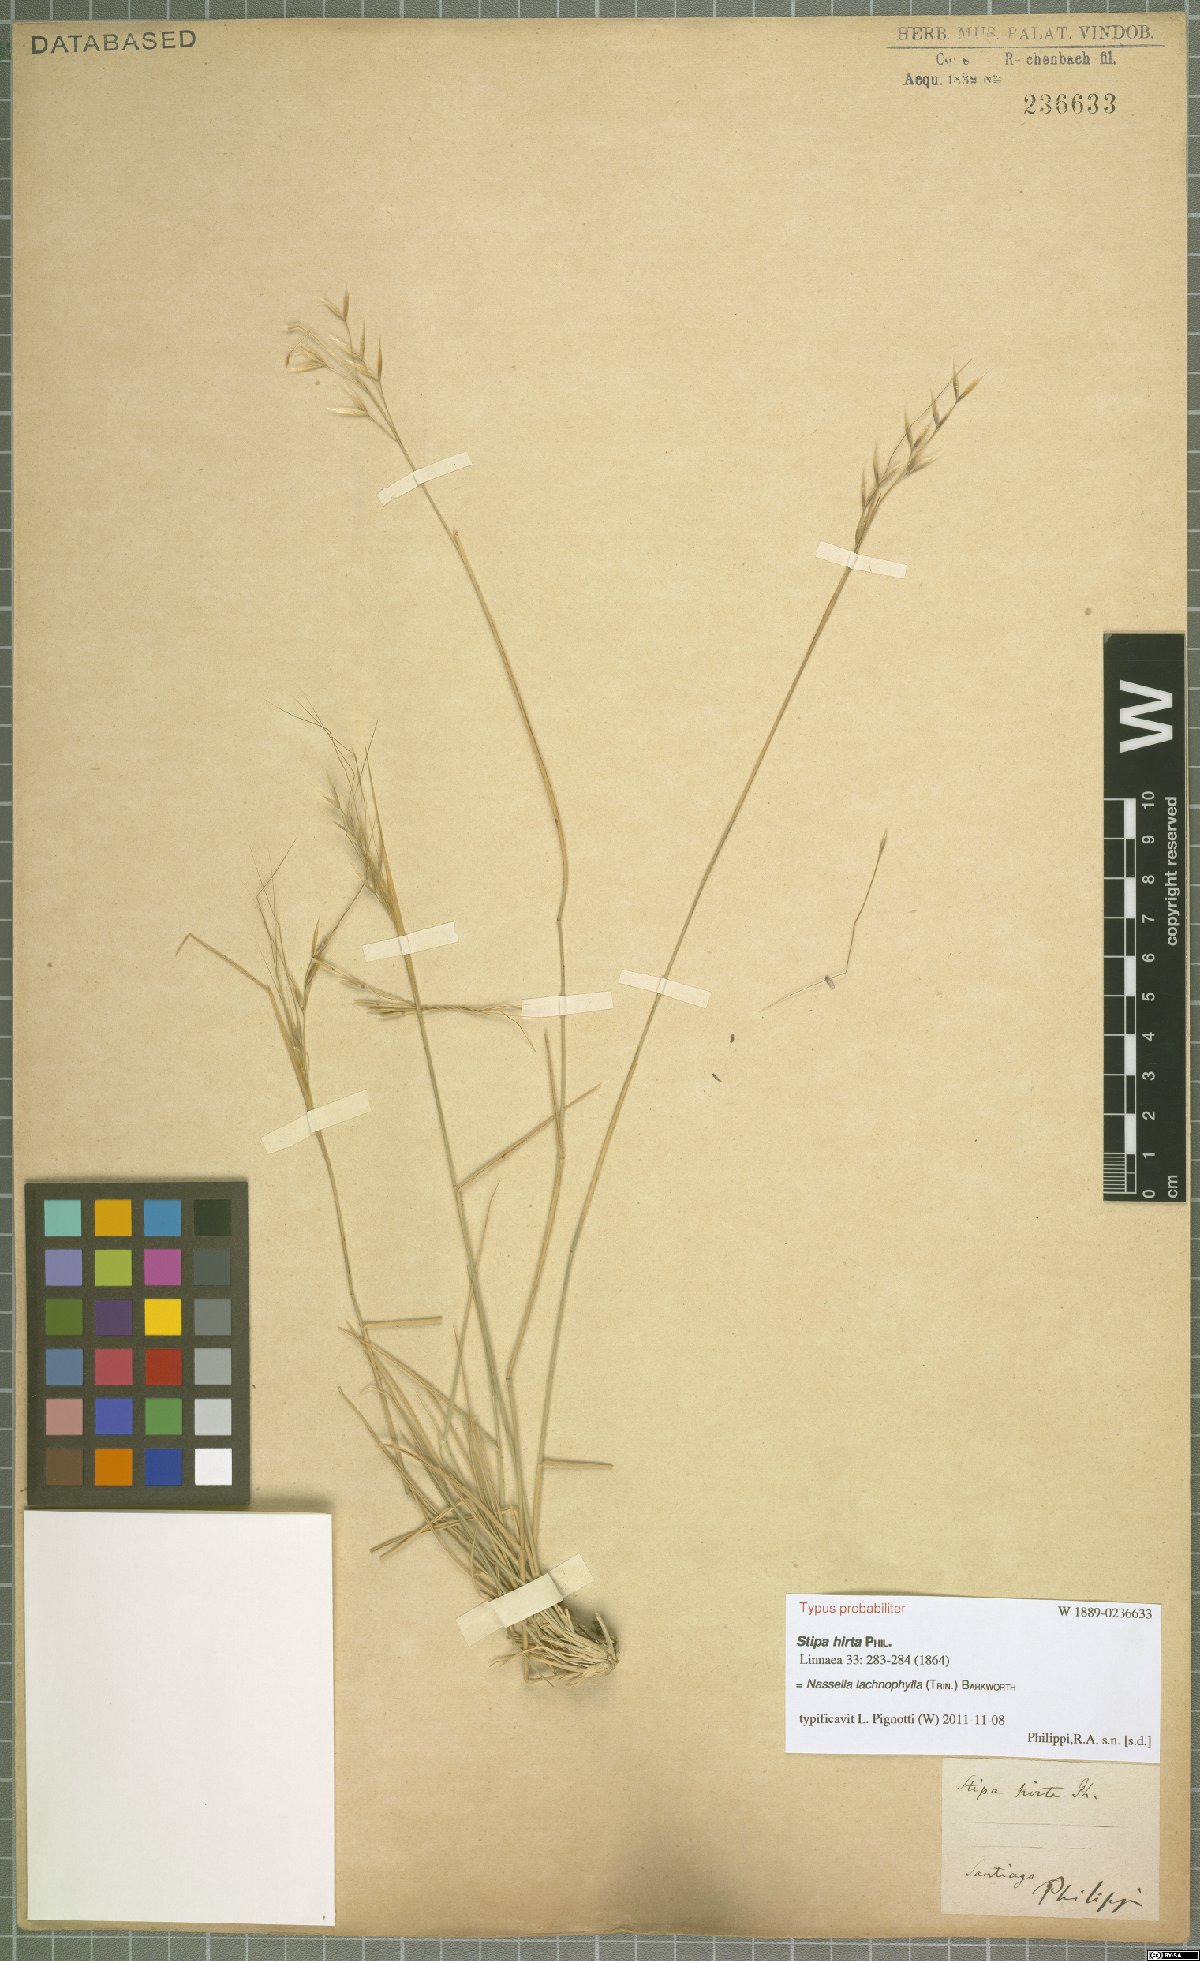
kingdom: Plantae
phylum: Tracheophyta
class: Liliopsida
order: Poales
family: Poaceae
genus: Nassella
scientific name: Nassella lachnophylla
